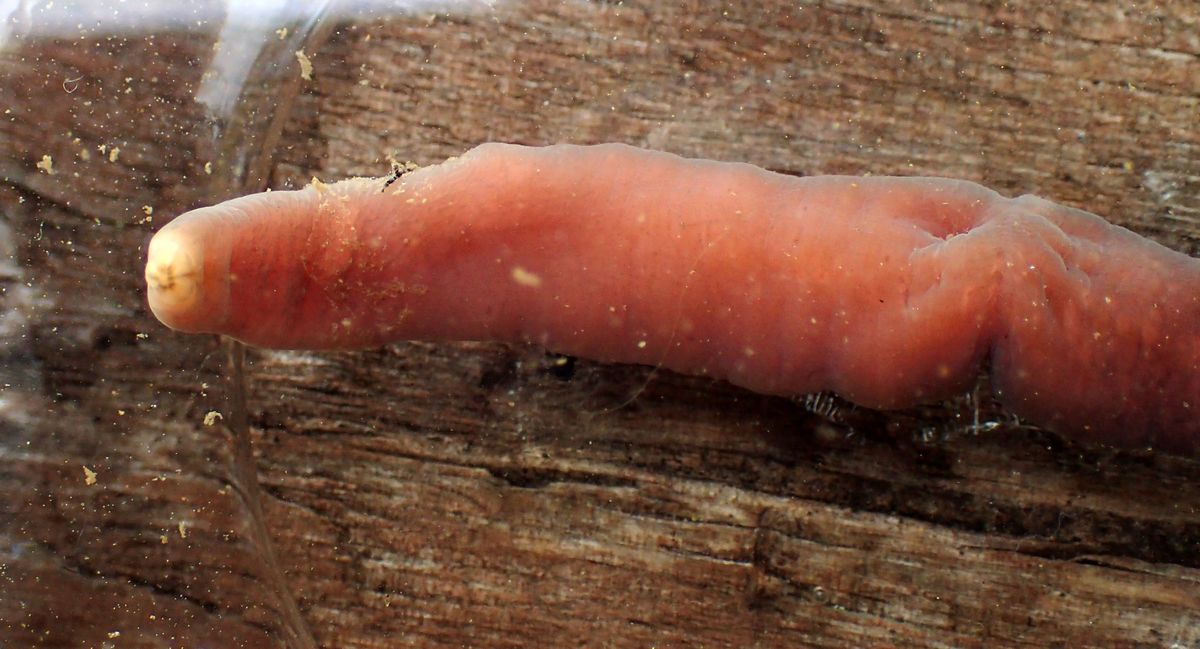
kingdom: Animalia
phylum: Nemertea
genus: Poseidon
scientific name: Poseidon
